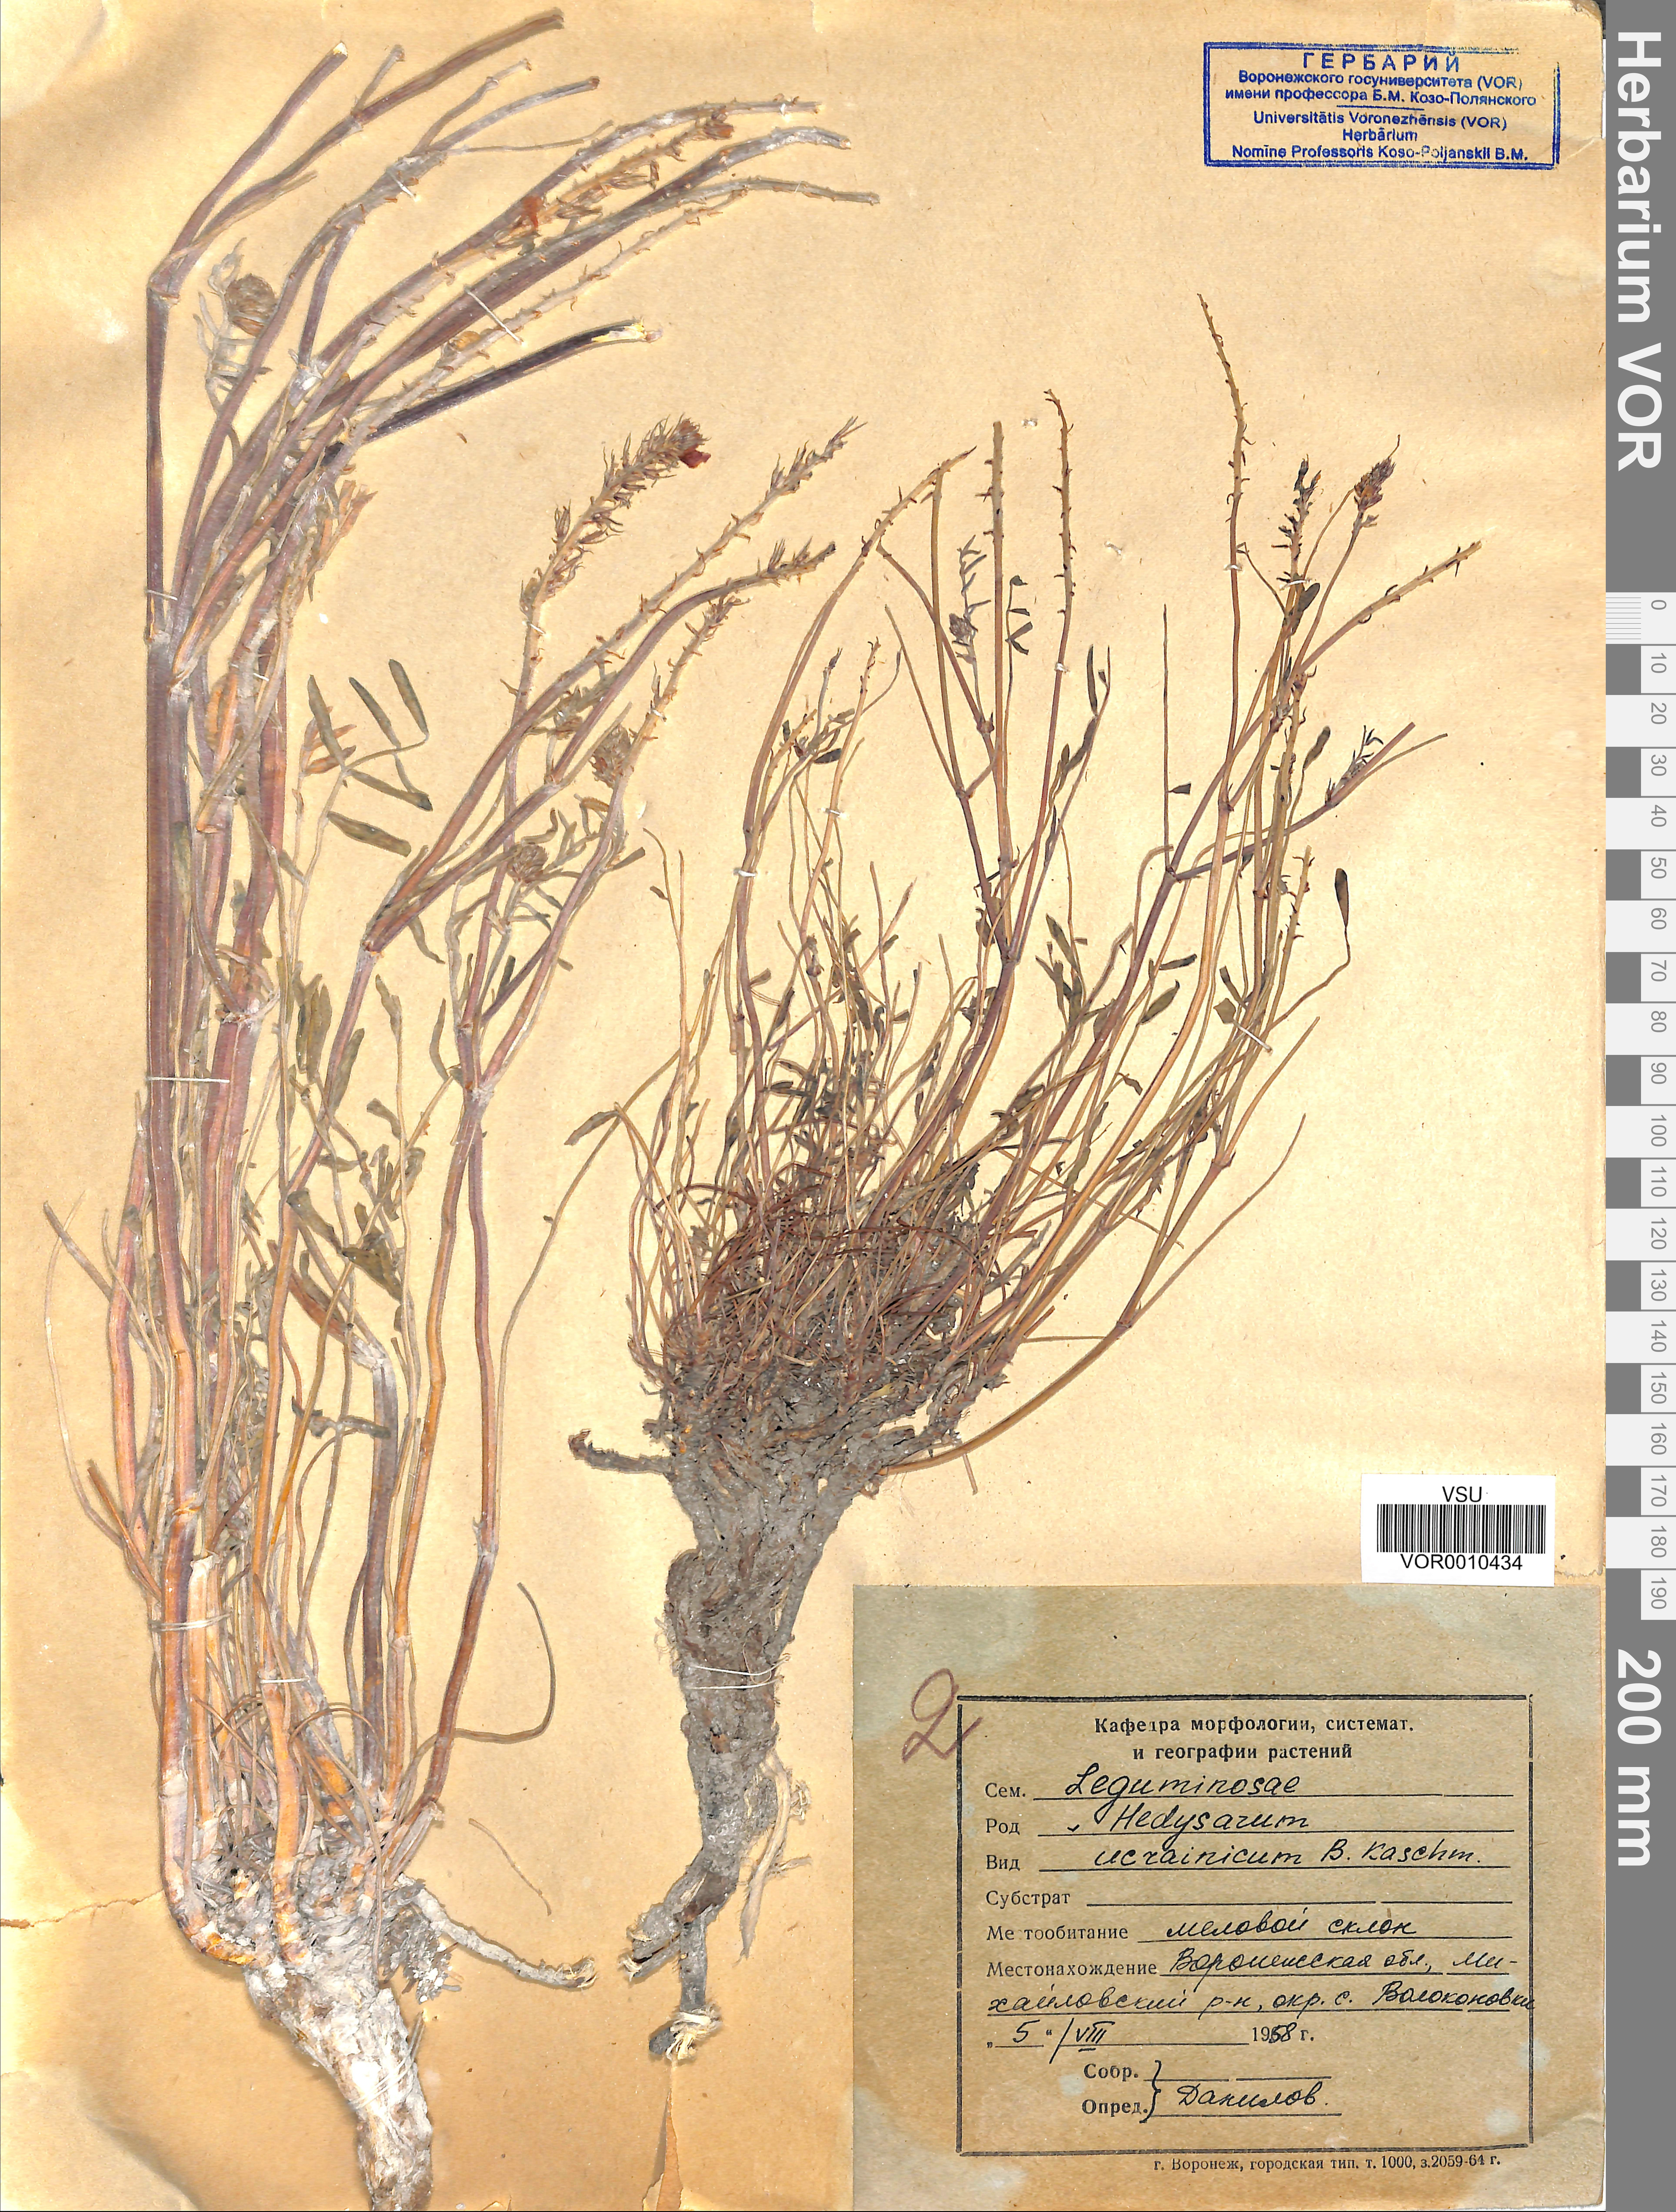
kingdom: Plantae
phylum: Tracheophyta
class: Magnoliopsida
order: Fabales
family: Fabaceae
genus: Hedysarum
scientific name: Hedysarum ucrainicum
